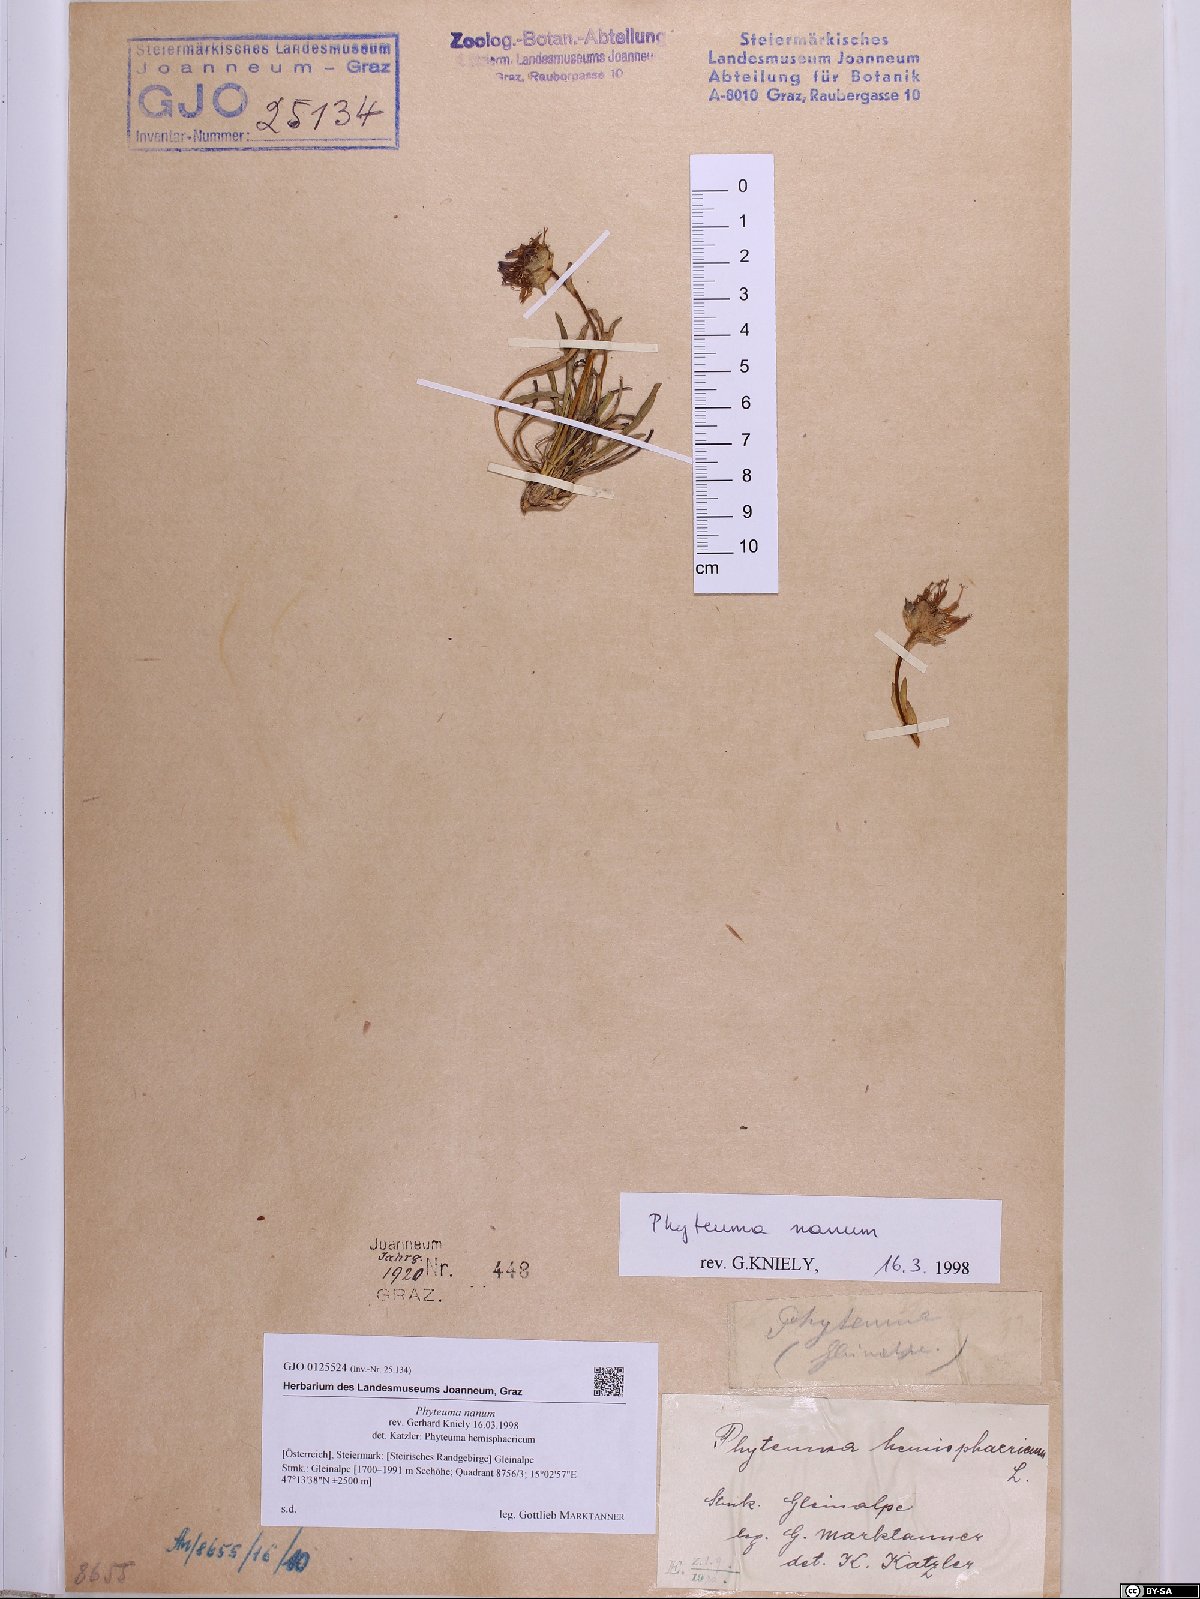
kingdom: Plantae
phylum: Tracheophyta
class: Magnoliopsida
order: Asterales
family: Campanulaceae
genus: Phyteuma
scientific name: Phyteuma globulariifolium
